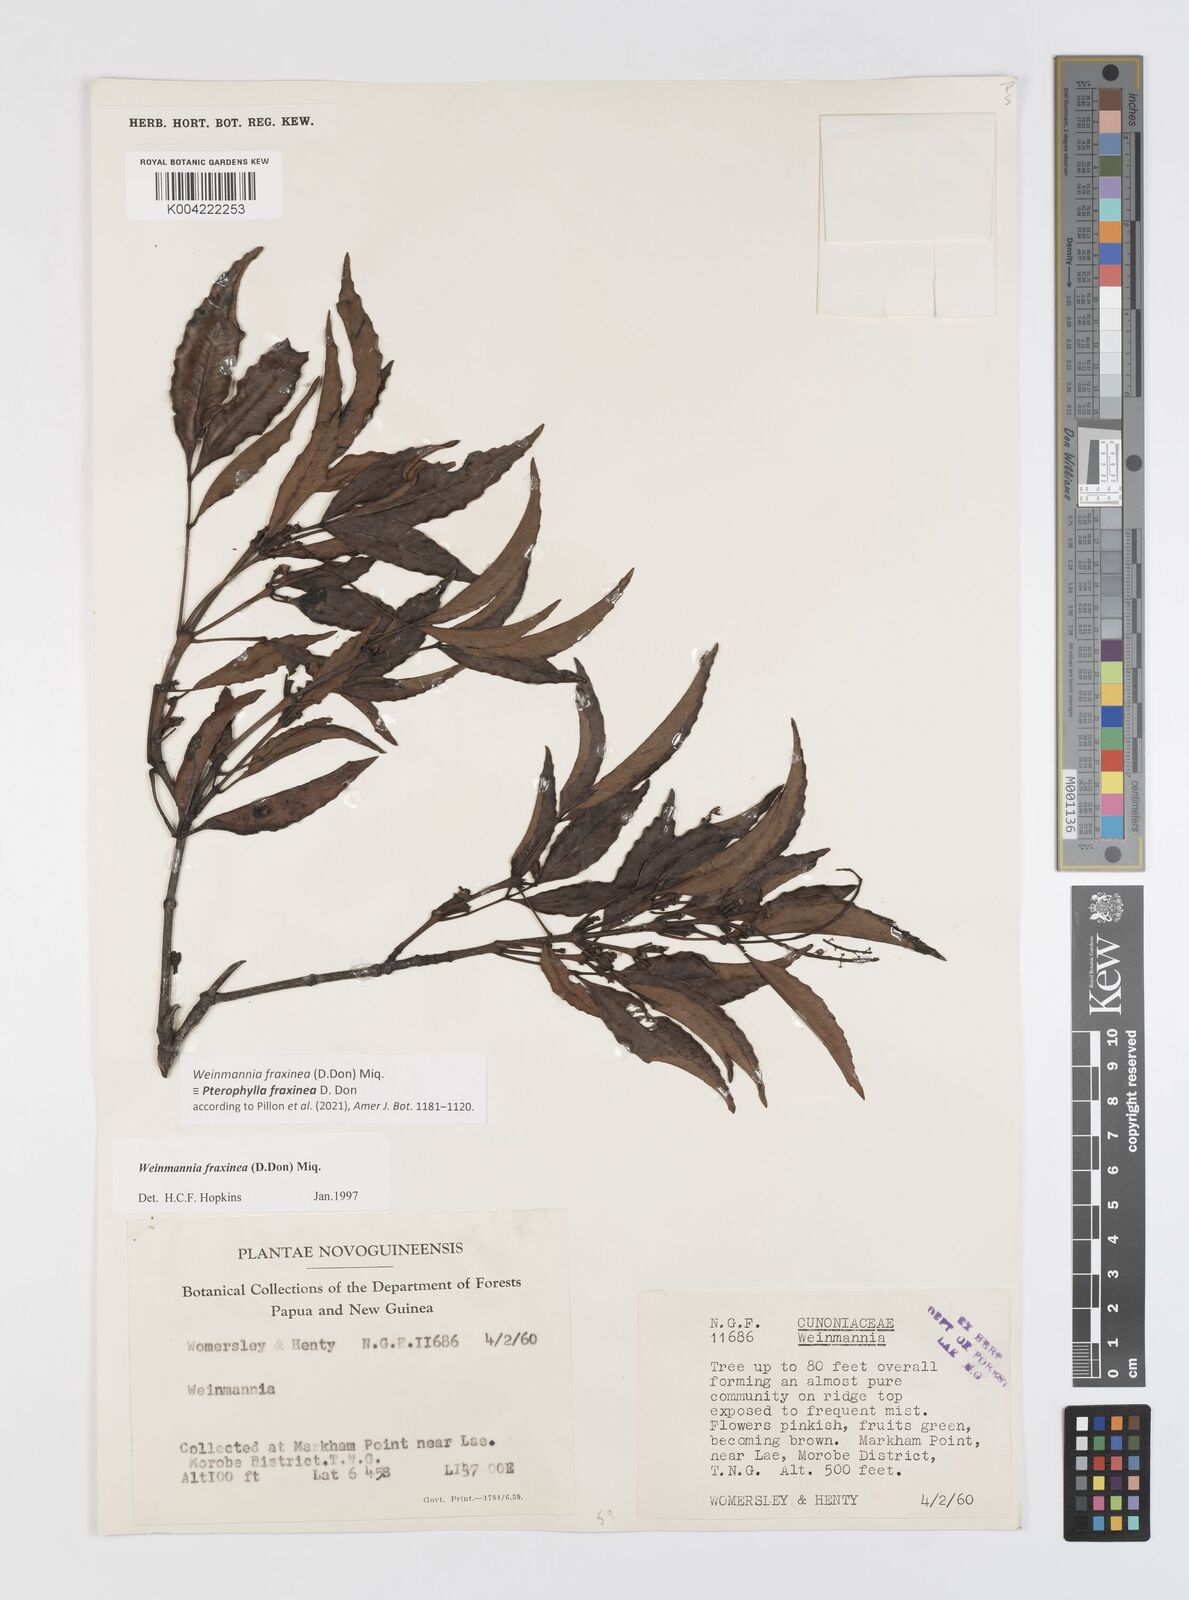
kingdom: Plantae
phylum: Tracheophyta
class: Magnoliopsida
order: Oxalidales
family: Cunoniaceae
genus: Pterophylla
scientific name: Pterophylla fraxinea
